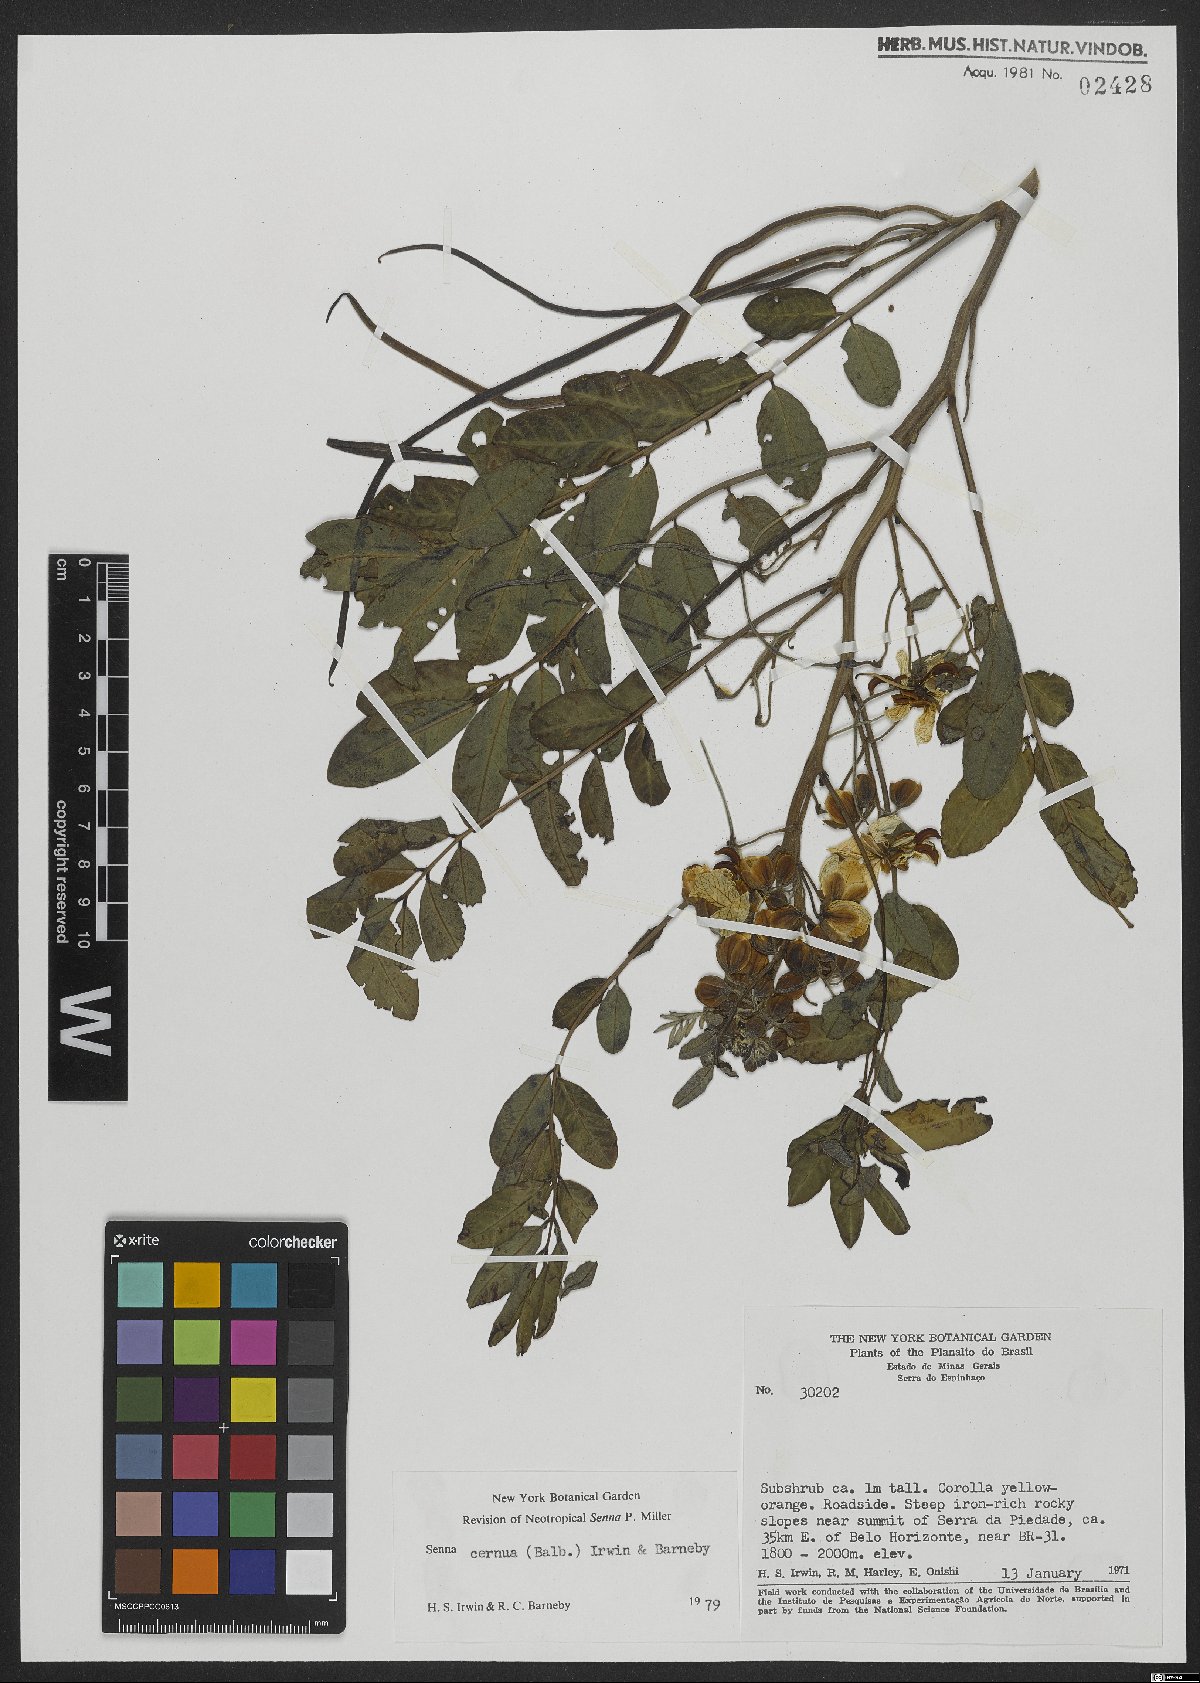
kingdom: Plantae
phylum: Tracheophyta
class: Magnoliopsida
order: Fabales
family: Fabaceae
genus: Senna
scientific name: Senna cernua
